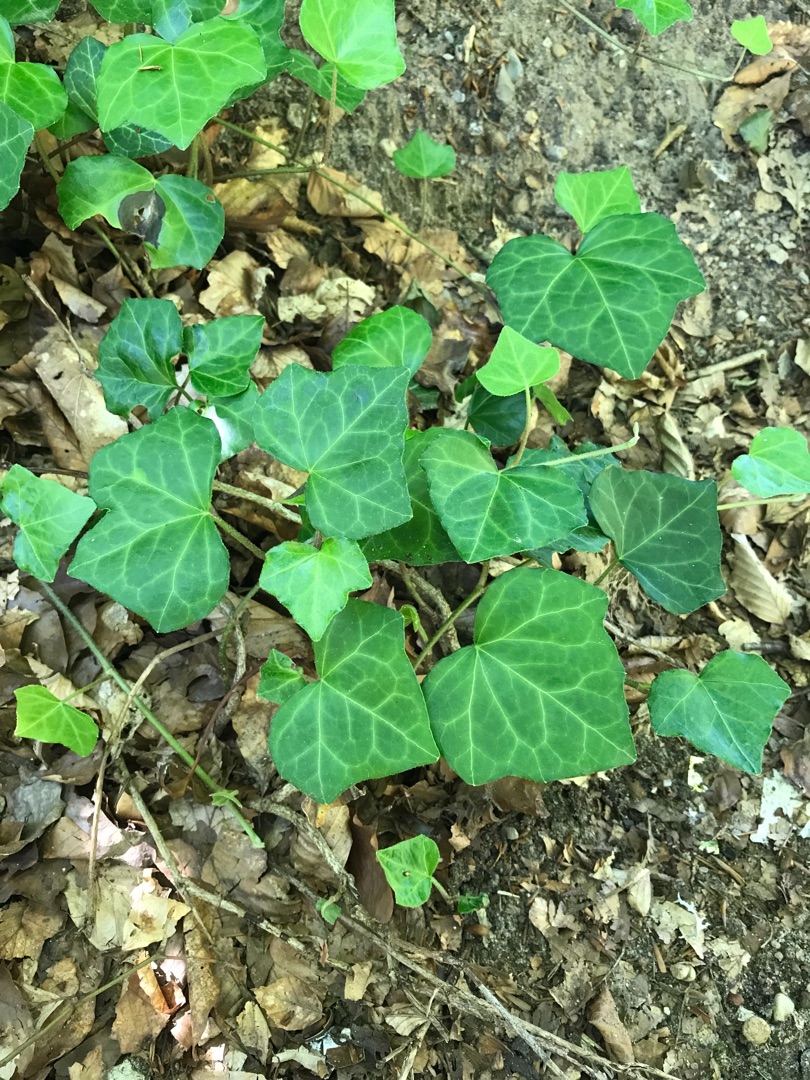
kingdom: Plantae
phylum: Tracheophyta
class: Magnoliopsida
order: Apiales
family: Araliaceae
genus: Hedera
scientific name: Hedera helix
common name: Vedbend
